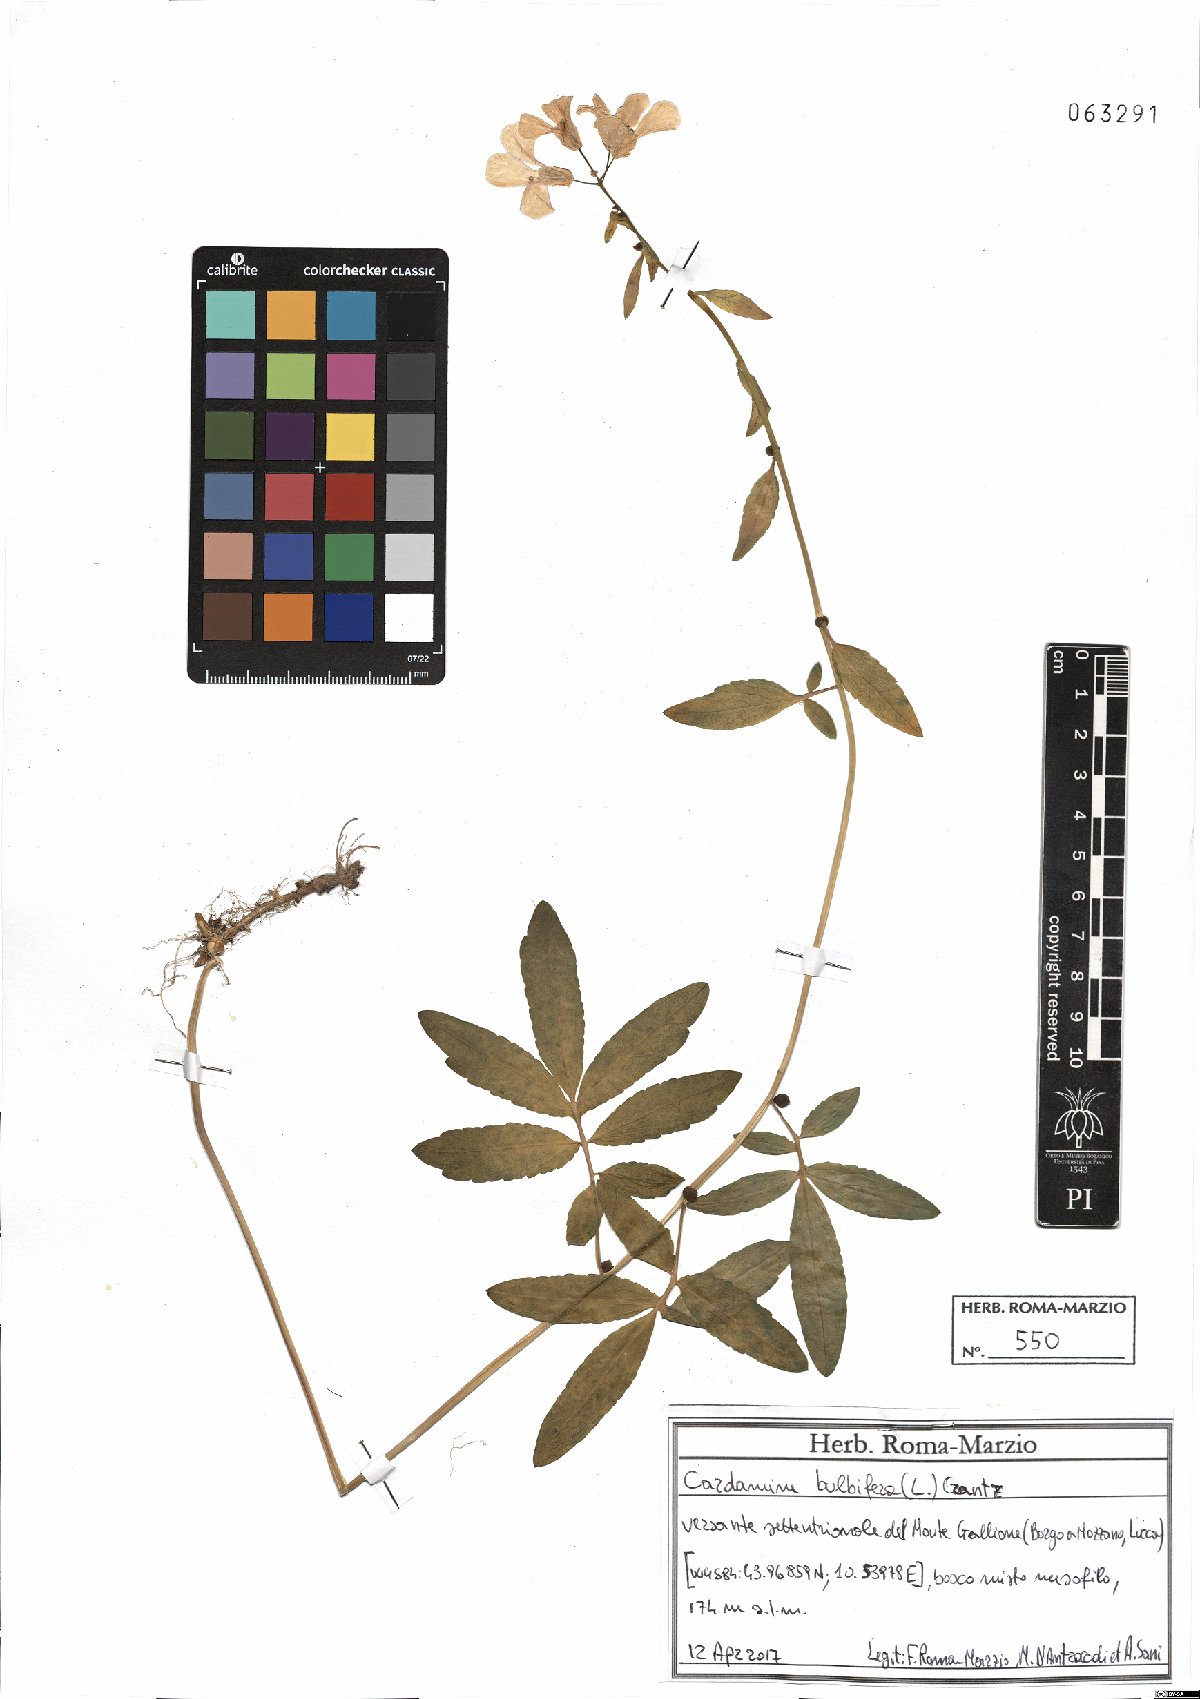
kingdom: Plantae
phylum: Tracheophyta
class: Magnoliopsida
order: Brassicales
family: Brassicaceae
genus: Cardamine
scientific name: Cardamine bulbifera
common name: Coralroot bittercress
